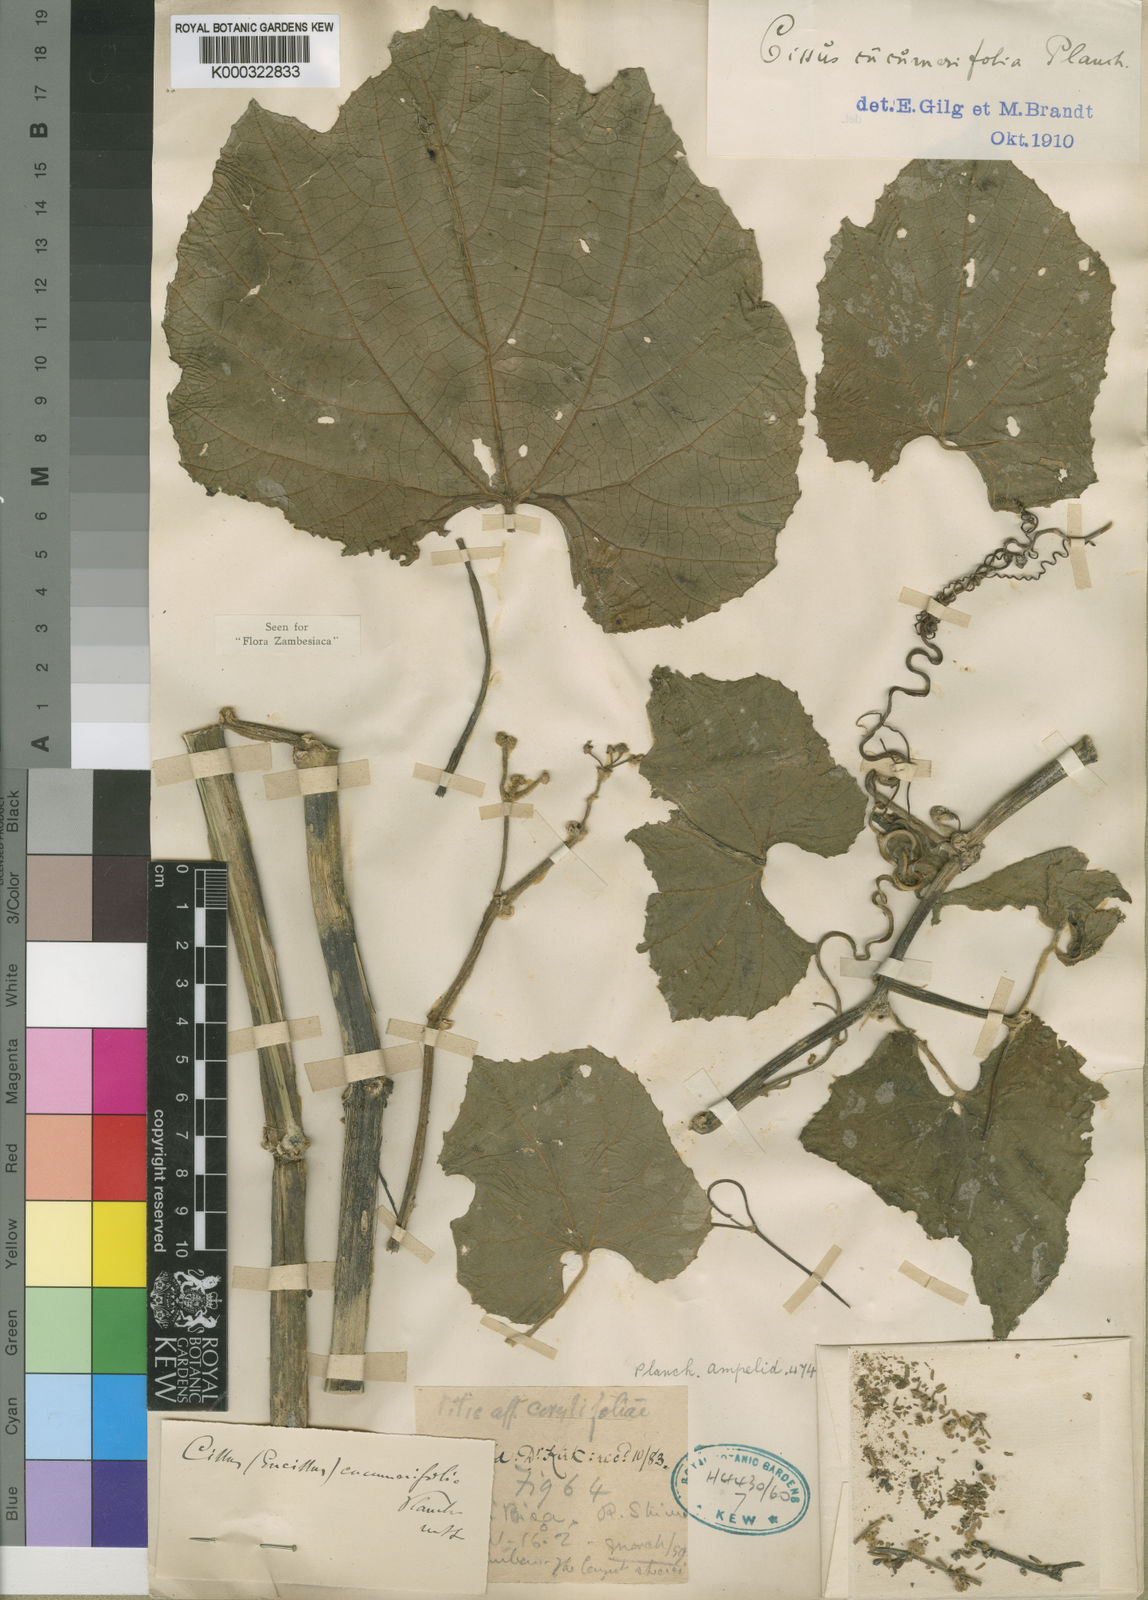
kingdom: Plantae
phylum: Tracheophyta
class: Magnoliopsida
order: Vitales
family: Vitaceae
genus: Cissus
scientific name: Cissus cucumerifolia
